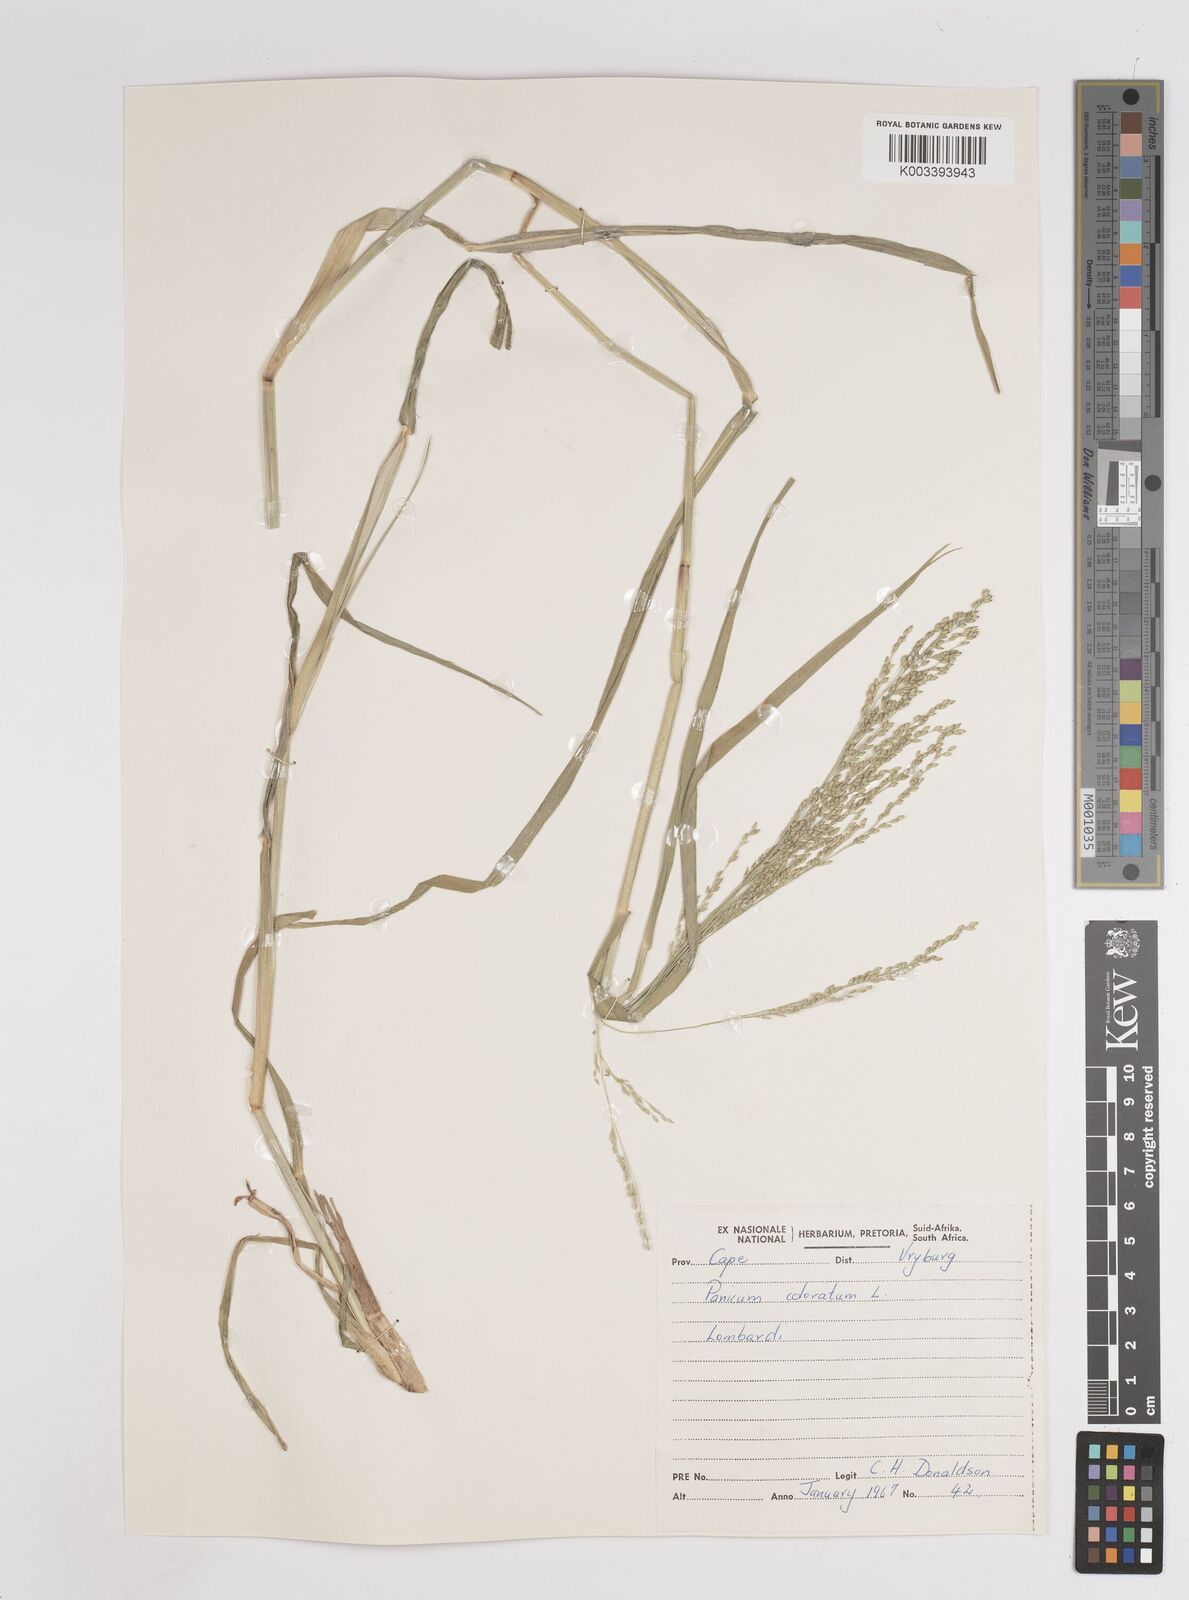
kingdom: Plantae
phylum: Tracheophyta
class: Liliopsida
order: Poales
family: Poaceae
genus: Panicum
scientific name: Panicum coloratum
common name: Kleingrass
